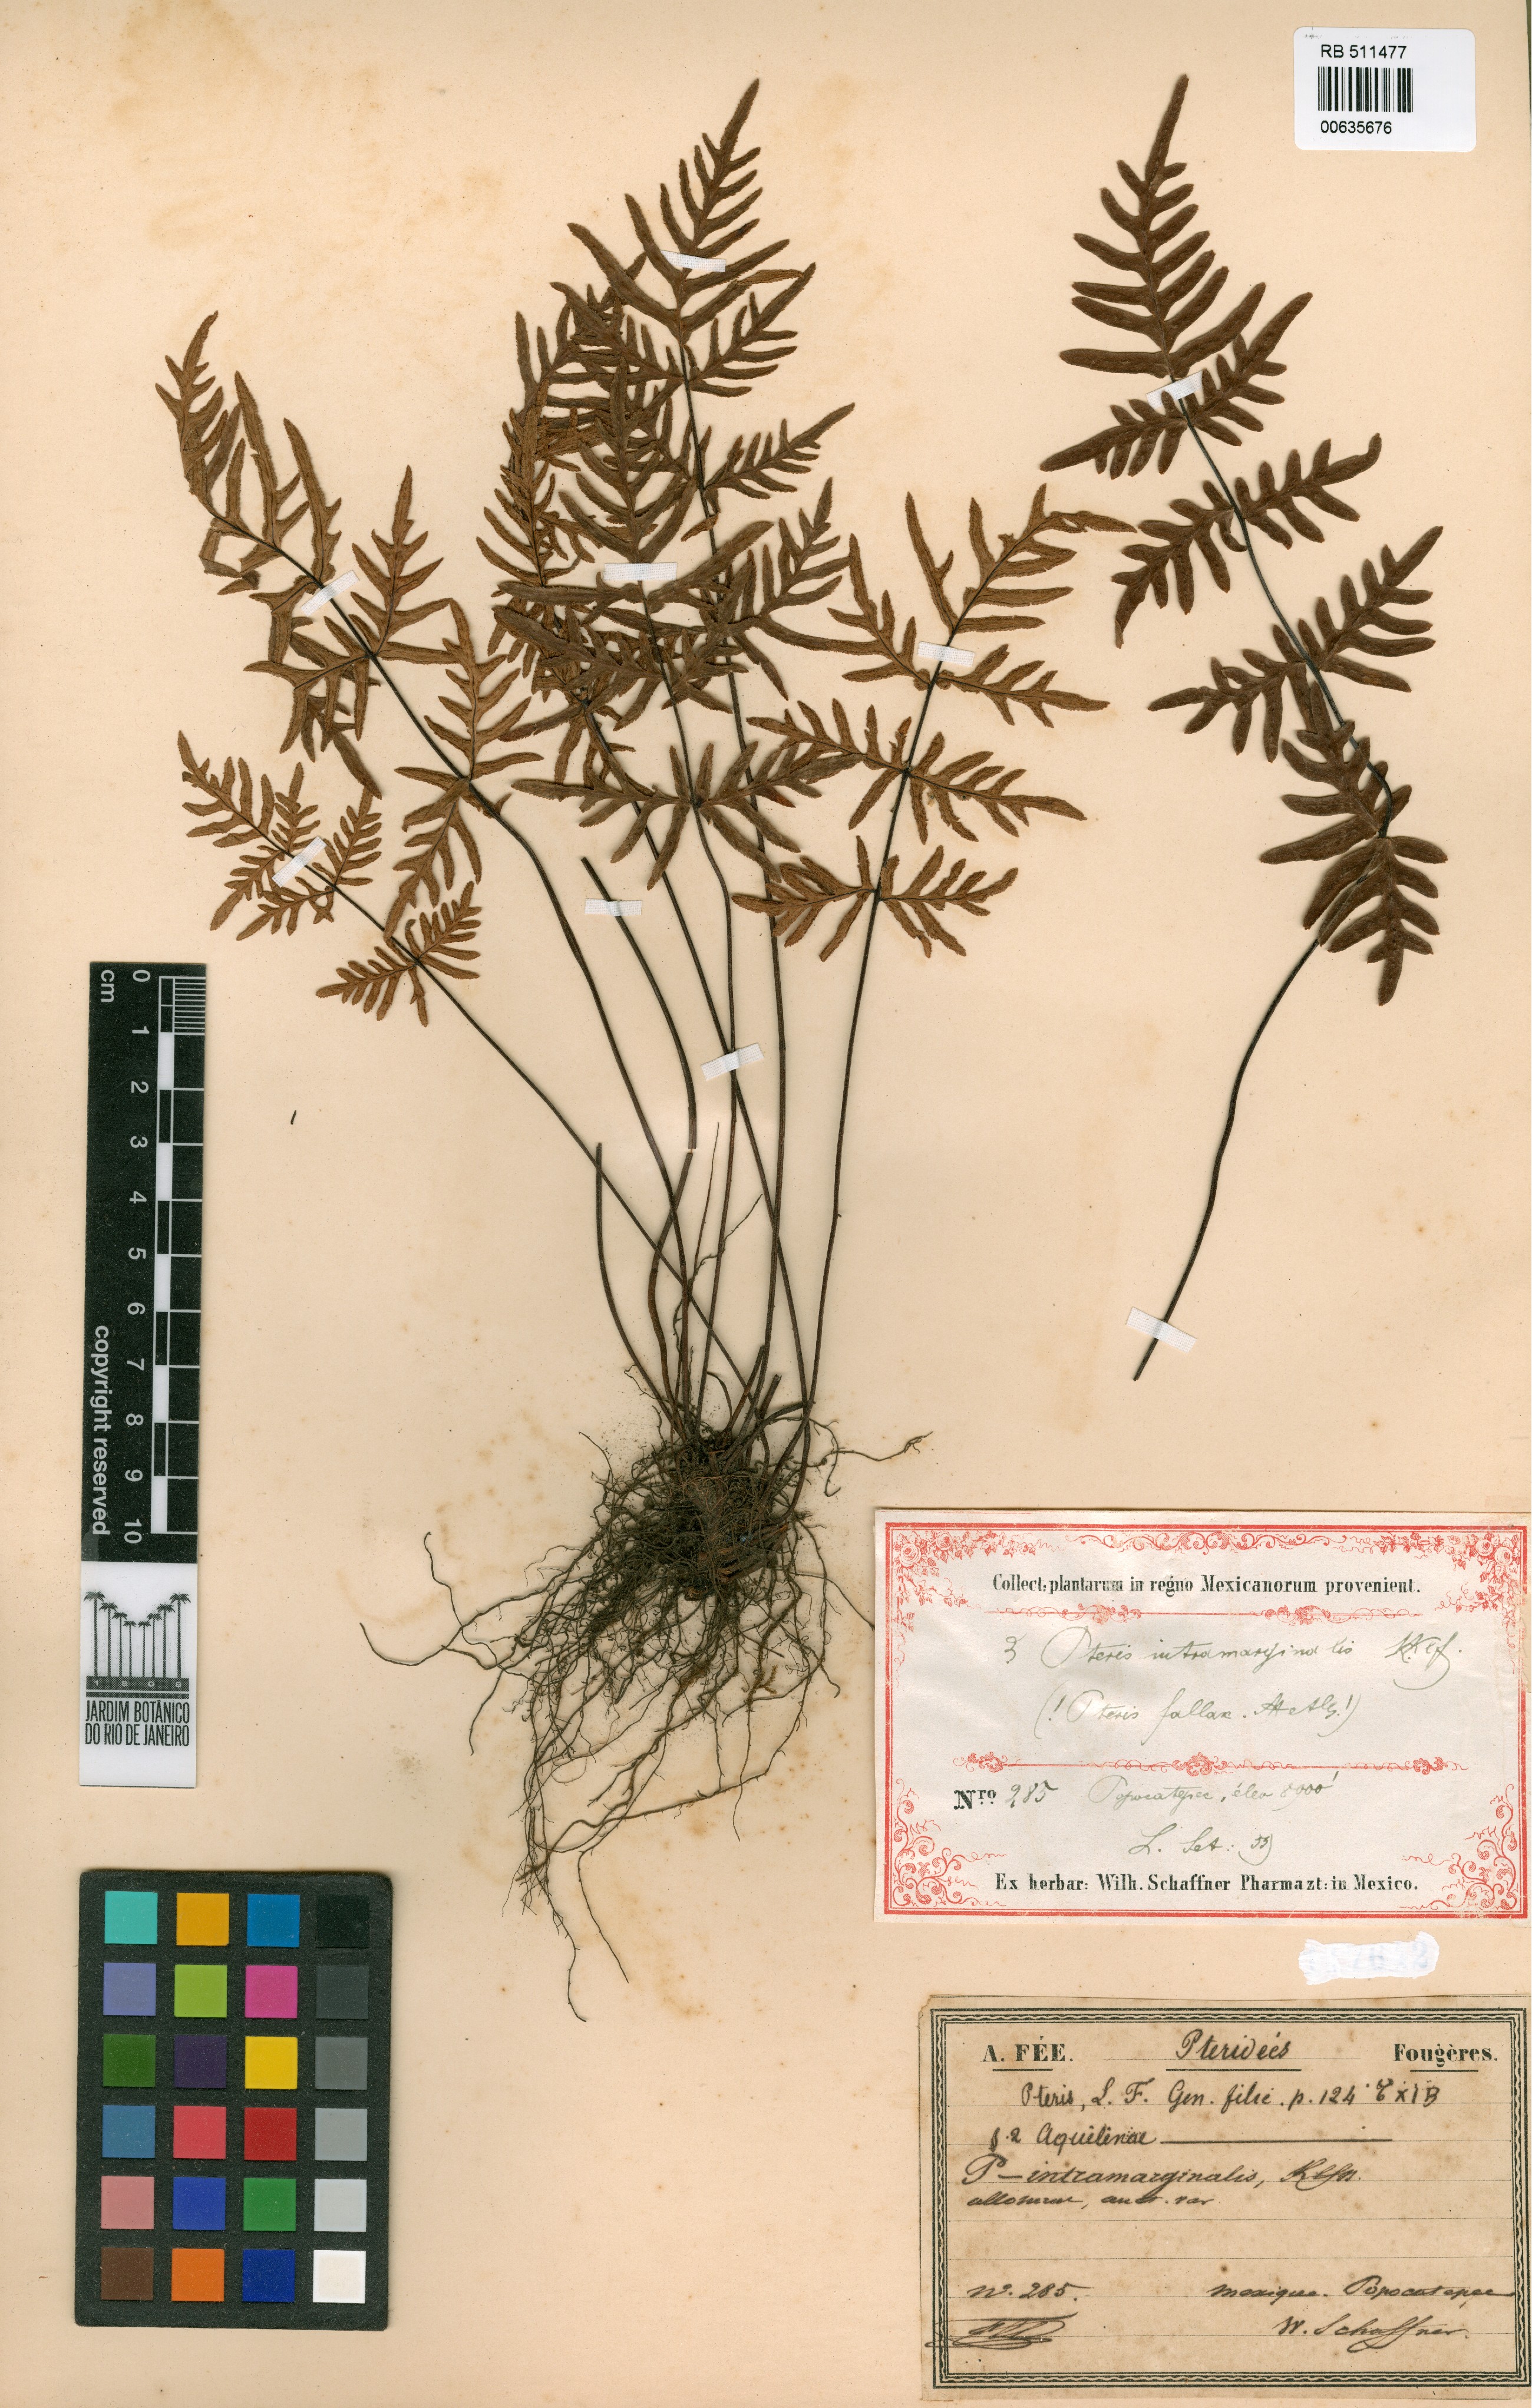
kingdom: Plantae
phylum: Tracheophyta
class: Polypodiopsida
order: Polypodiales
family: Pteridaceae
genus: Mildella
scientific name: Mildella intramarginalis
